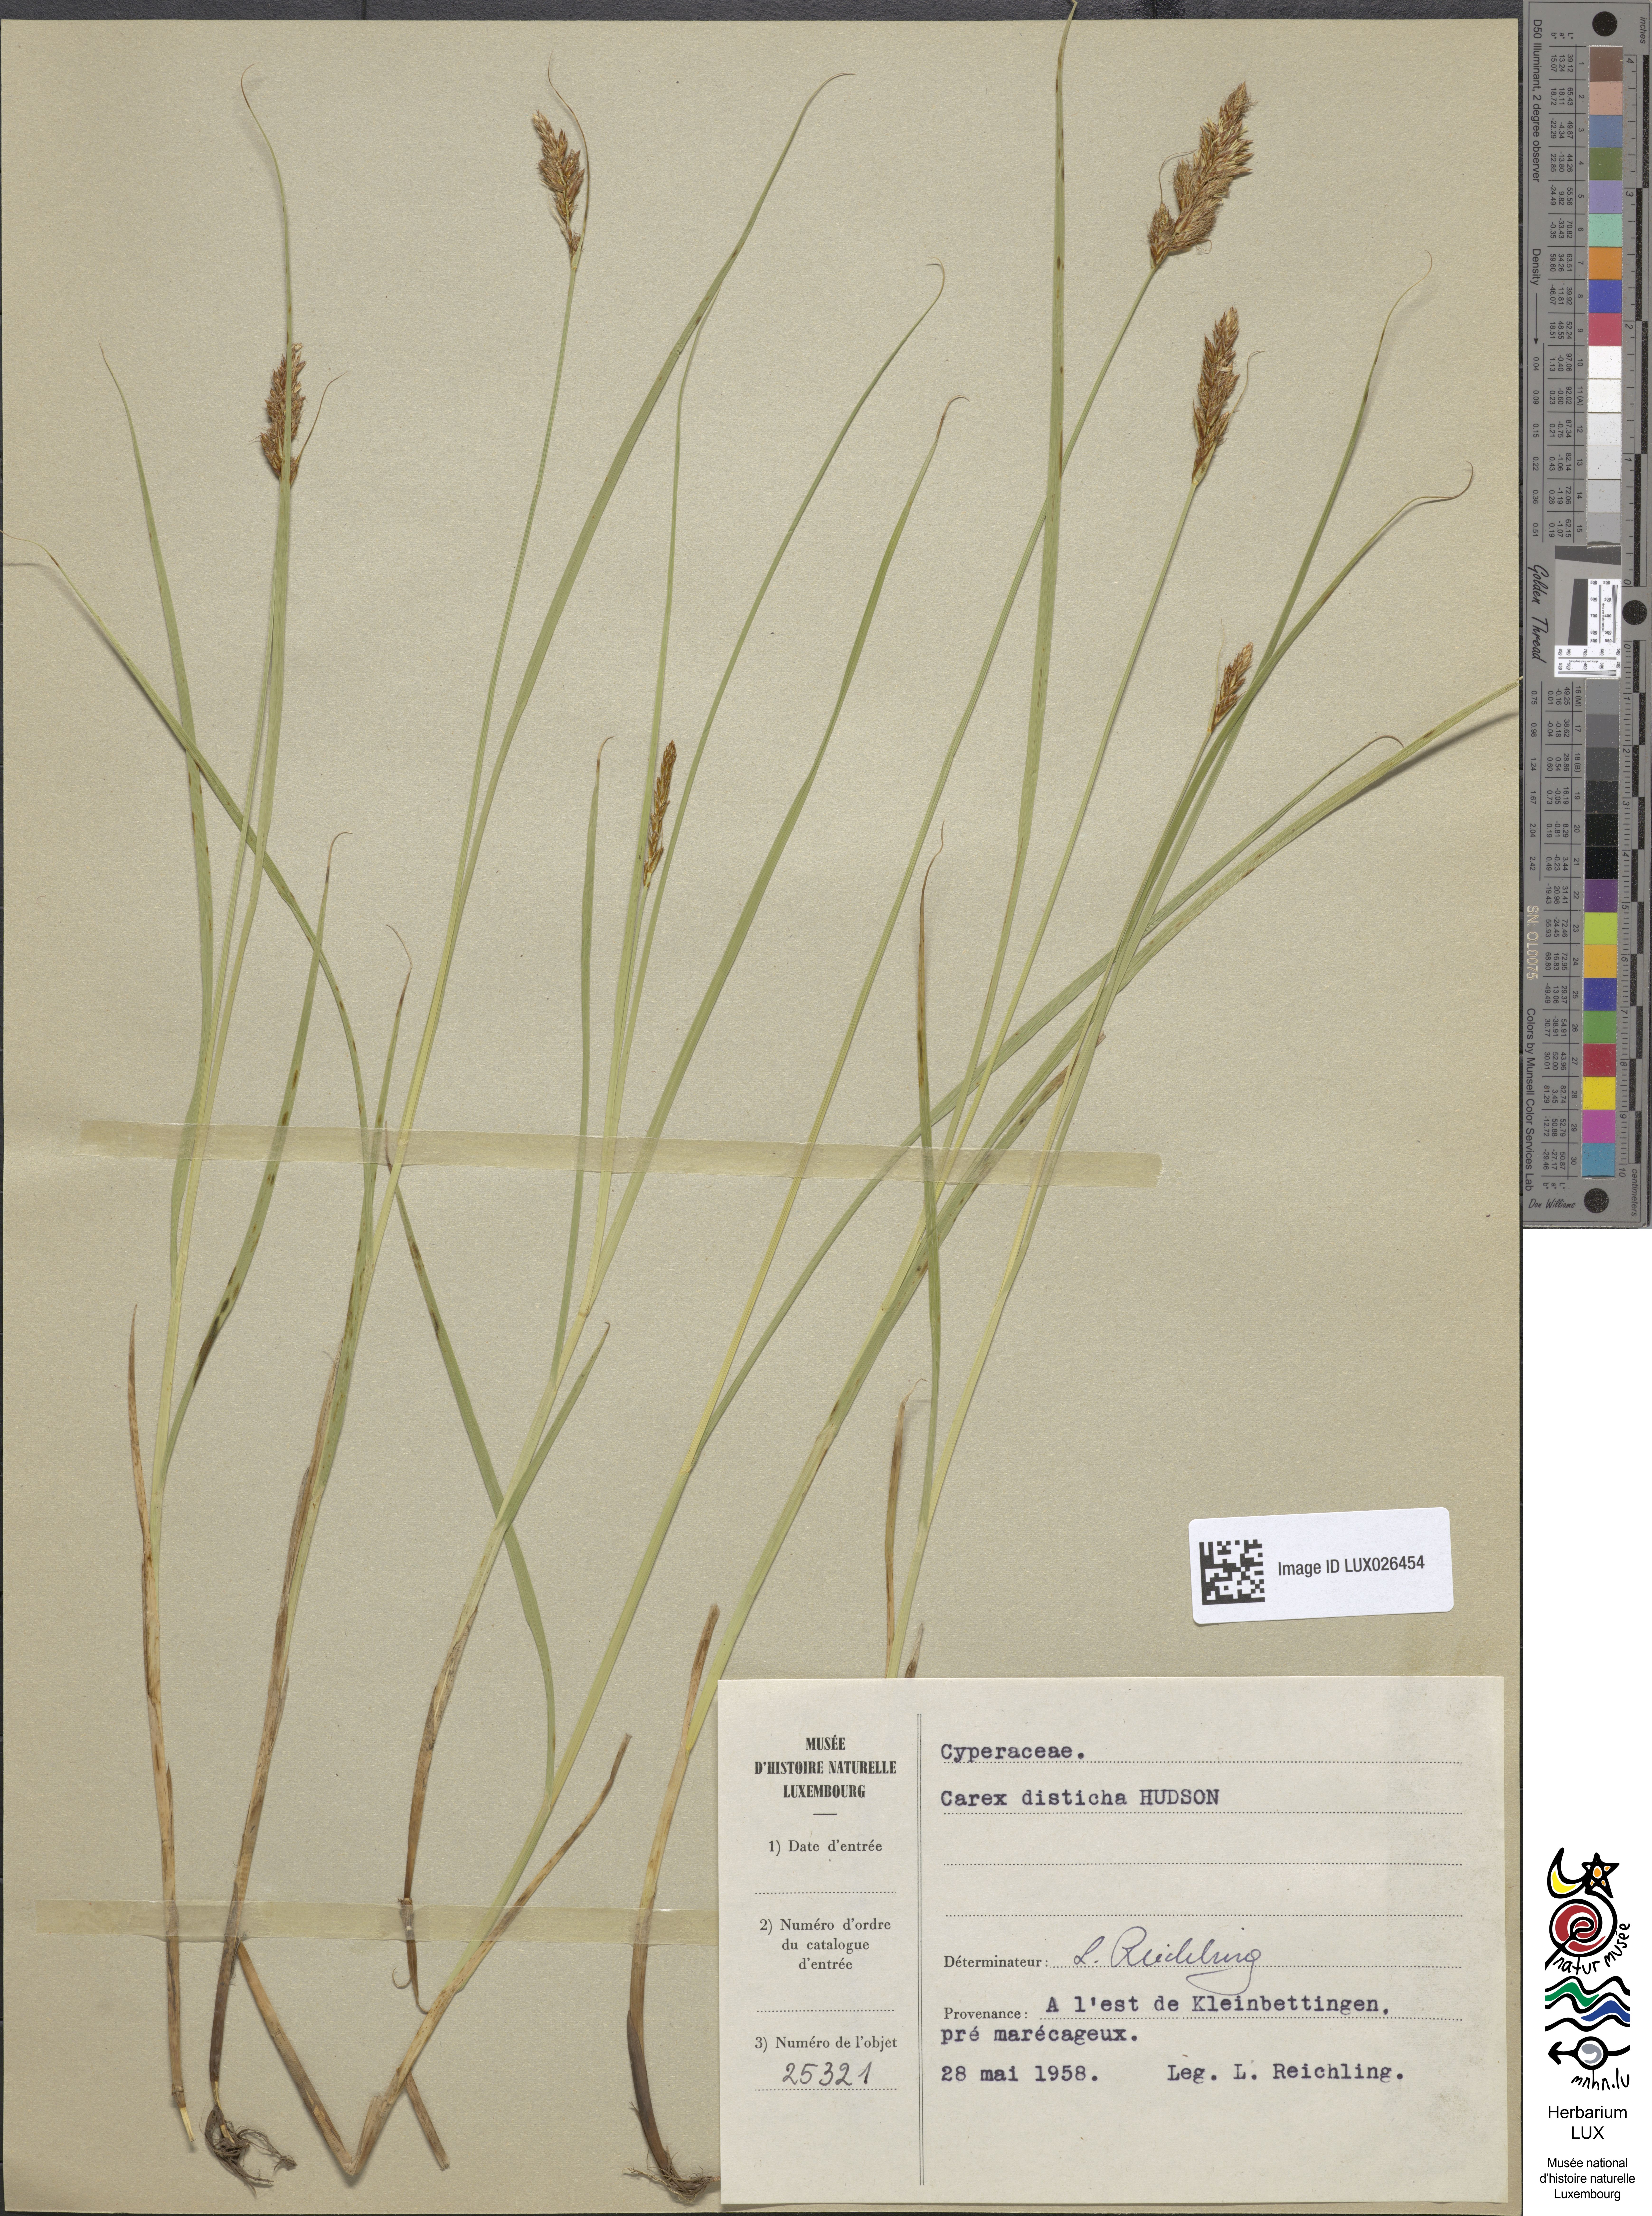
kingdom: Plantae
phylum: Tracheophyta
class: Liliopsida
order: Poales
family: Cyperaceae
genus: Carex
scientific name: Carex disticha
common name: Brown sedge
